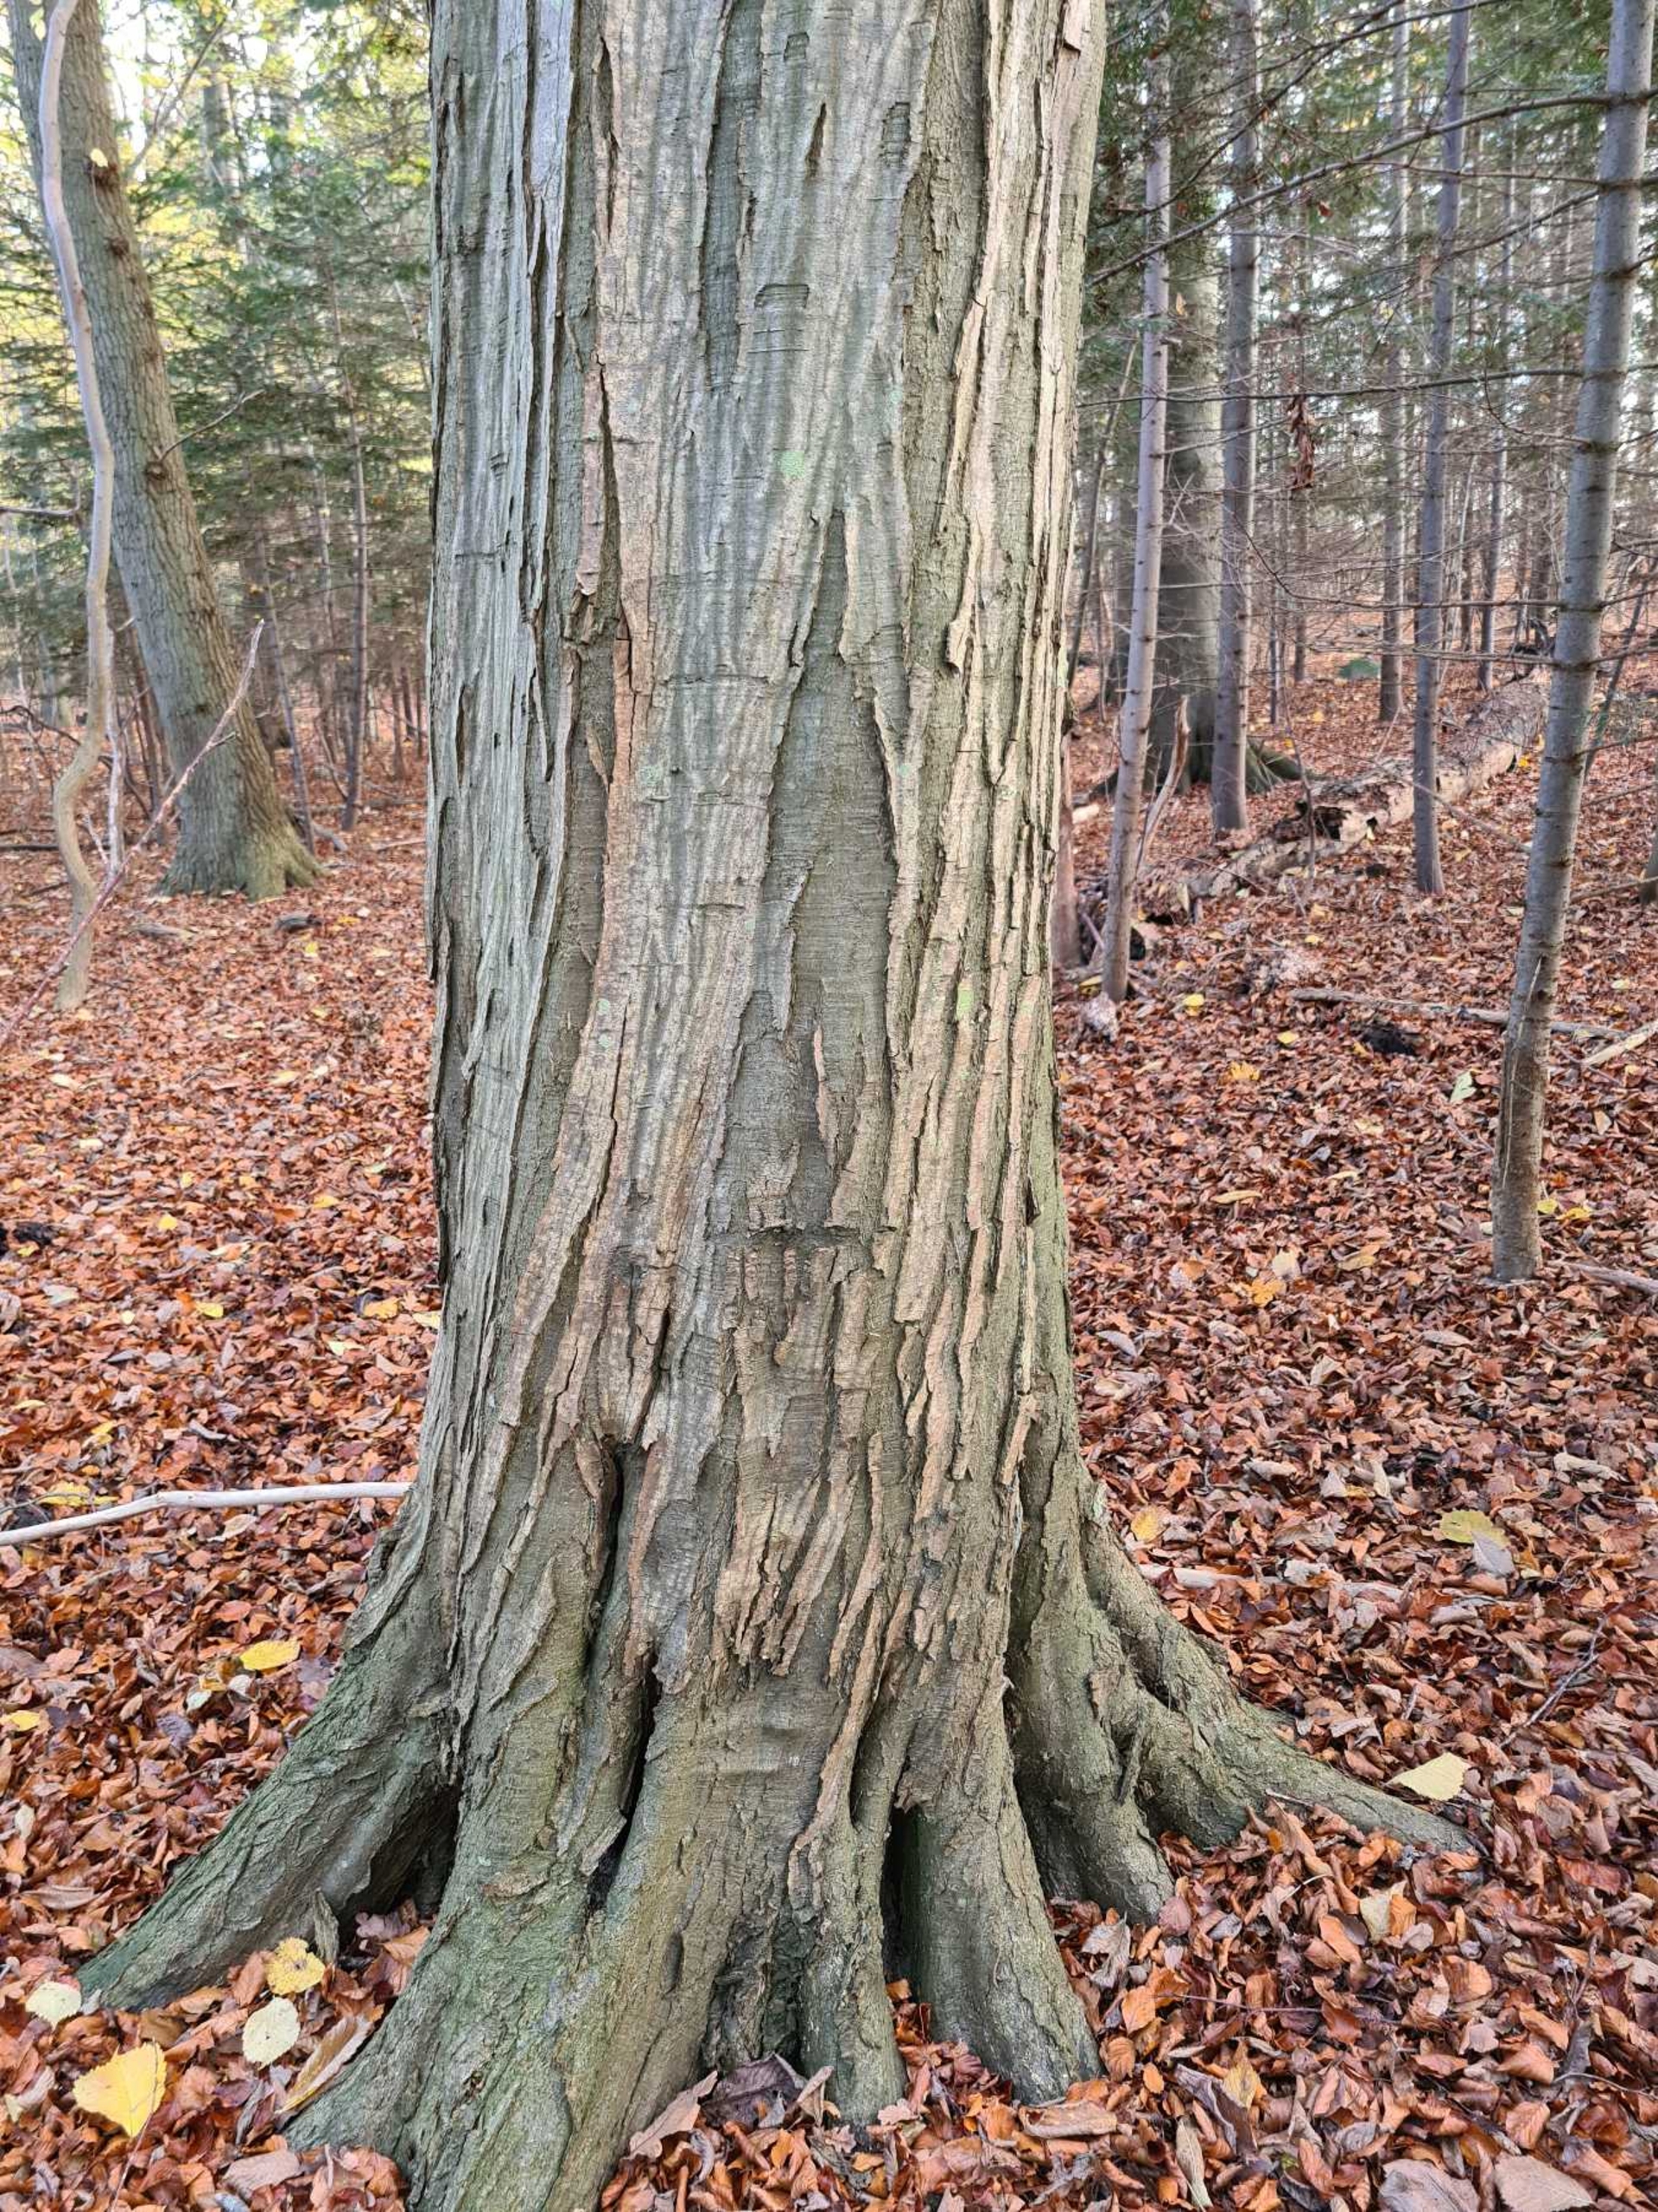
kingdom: Plantae
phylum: Tracheophyta
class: Magnoliopsida
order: Fagales
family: Betulaceae
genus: Carpinus
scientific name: Carpinus betulus
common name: Avnbøg
